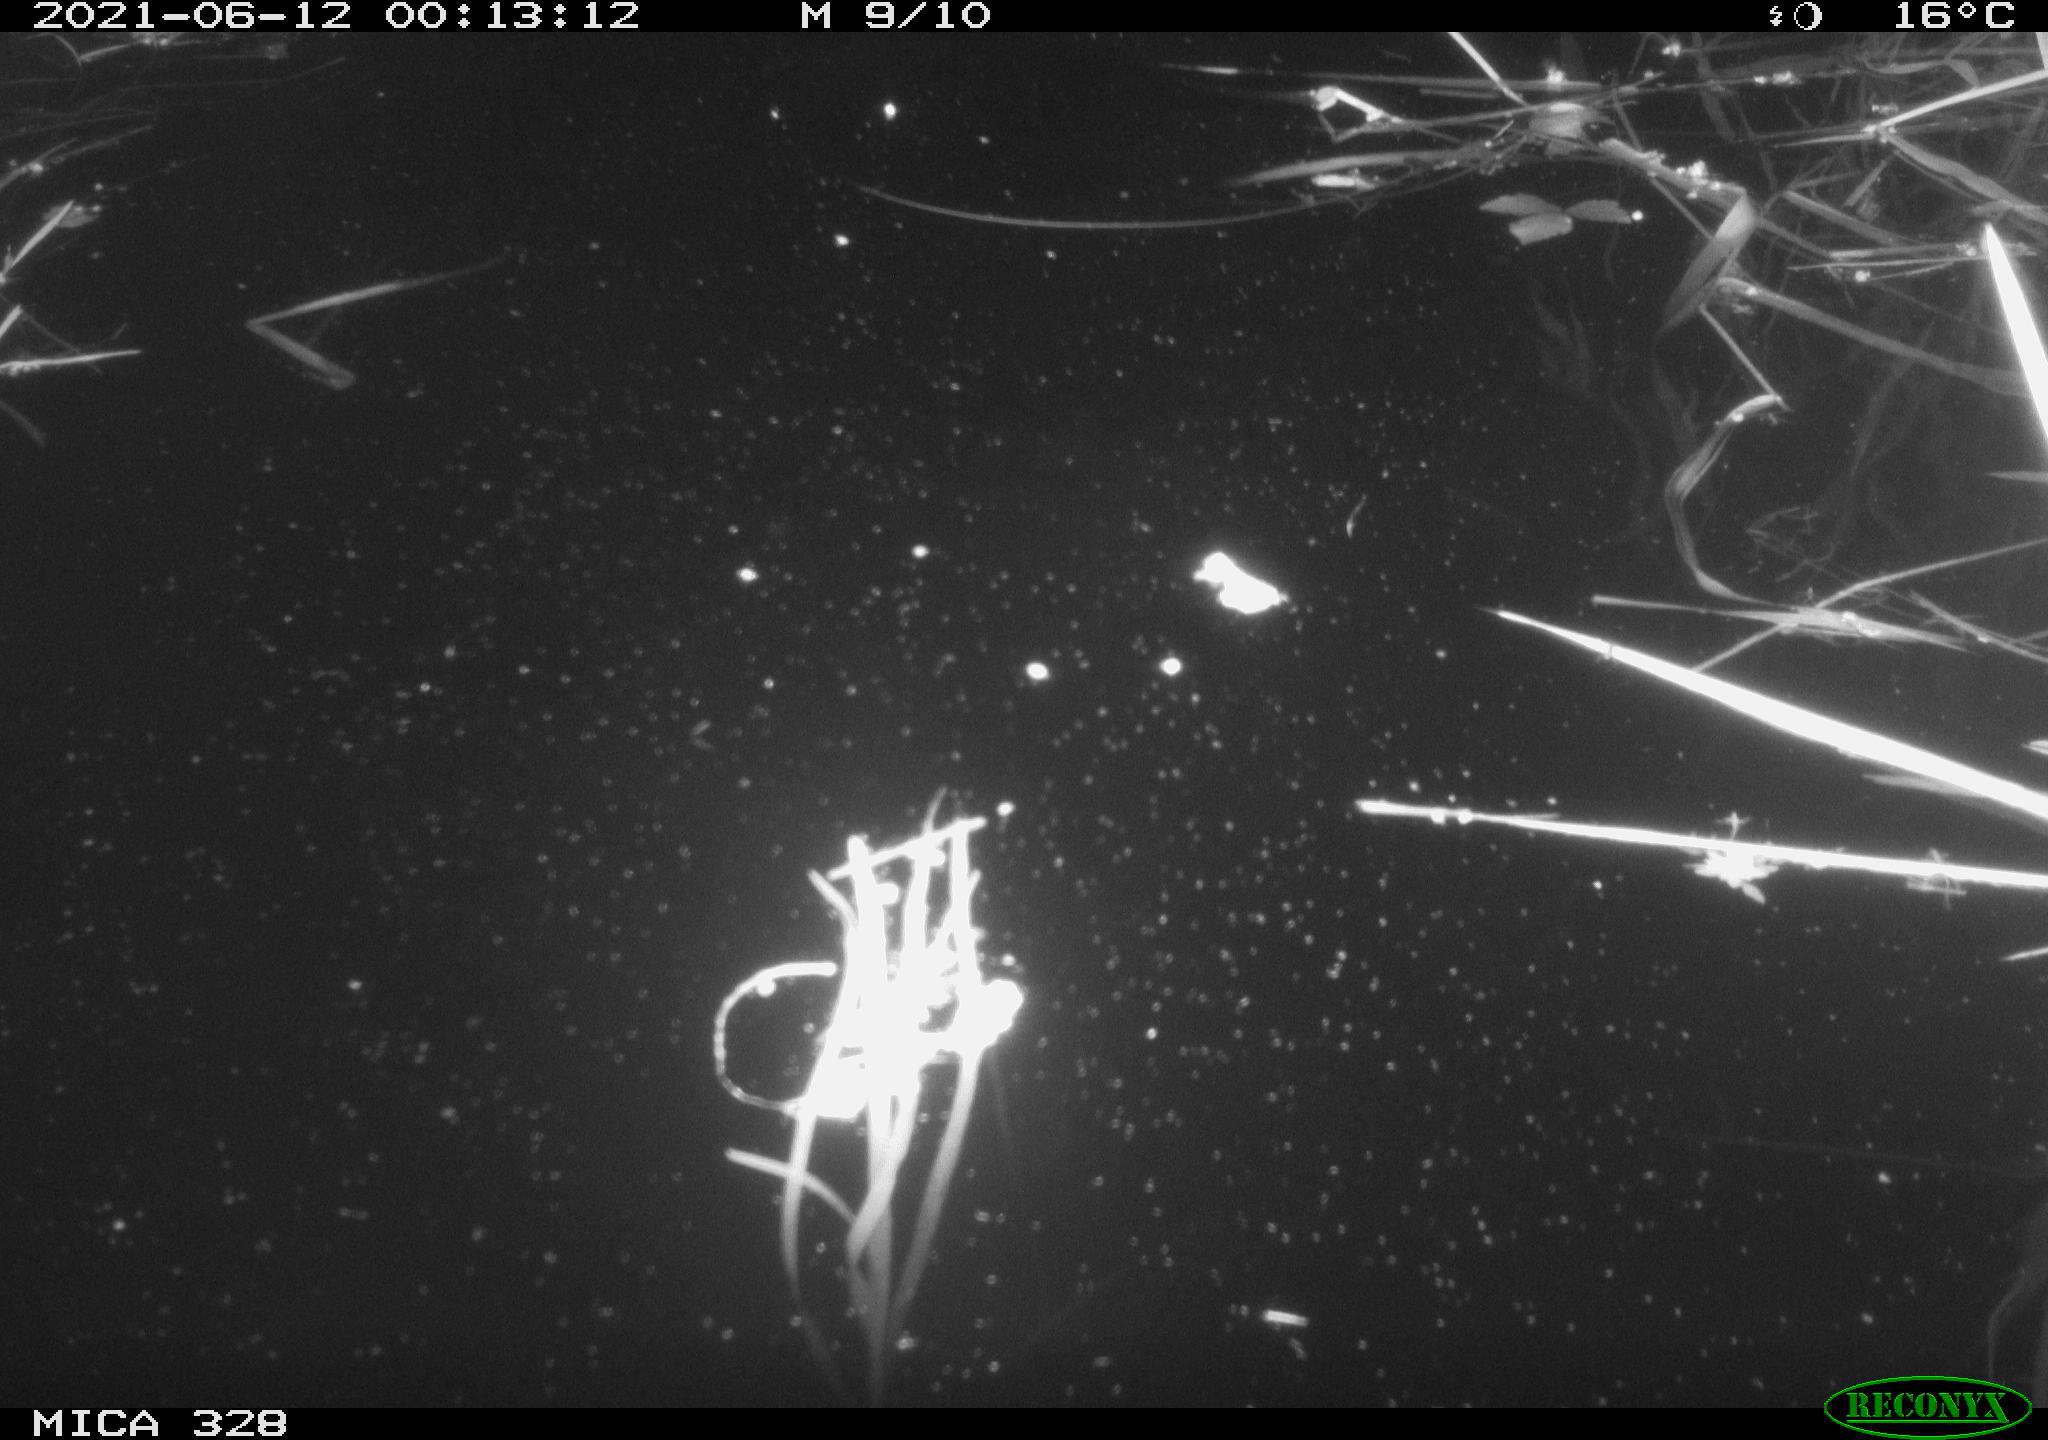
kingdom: Animalia
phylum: Chordata
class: Mammalia
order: Rodentia
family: Cricetidae
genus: Ondatra
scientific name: Ondatra zibethicus
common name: Muskrat
